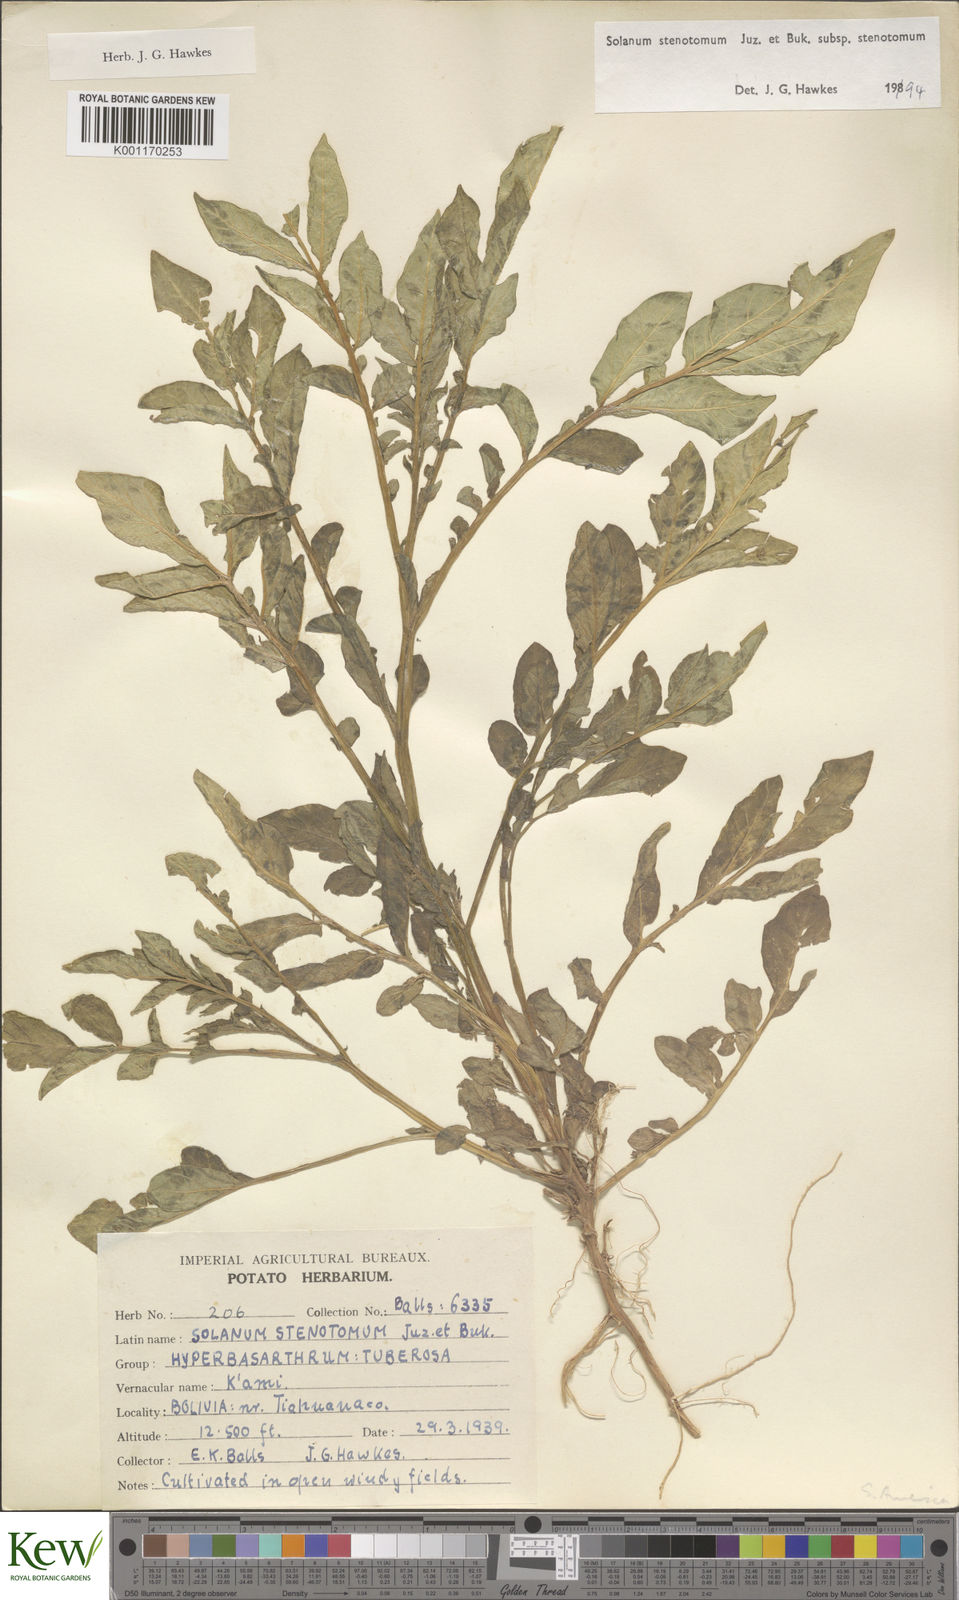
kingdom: Plantae
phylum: Tracheophyta
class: Magnoliopsida
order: Solanales
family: Solanaceae
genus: Solanum
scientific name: Solanum tuberosum
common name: Potato
